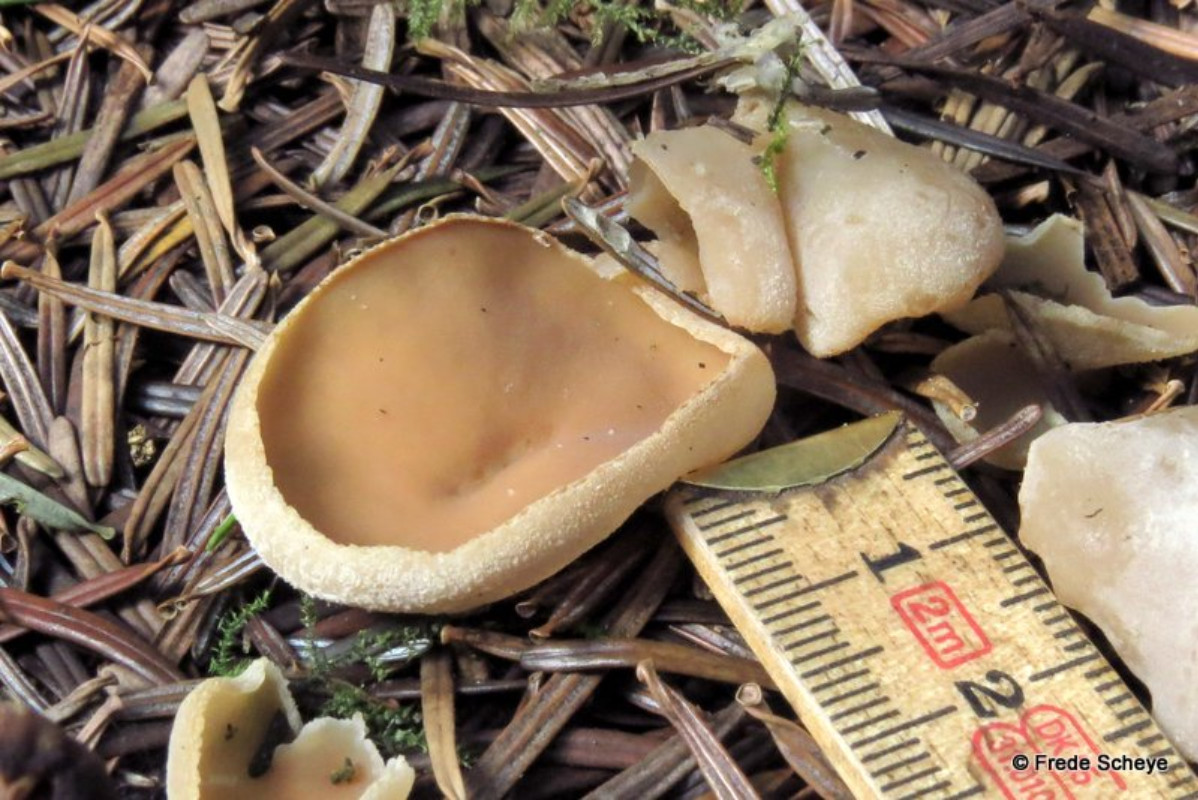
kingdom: Fungi
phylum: Ascomycota
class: Pezizomycetes
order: Pezizales
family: Pezizaceae
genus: Peziza
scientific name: Peziza fimeti
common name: møg-bægersvamp
